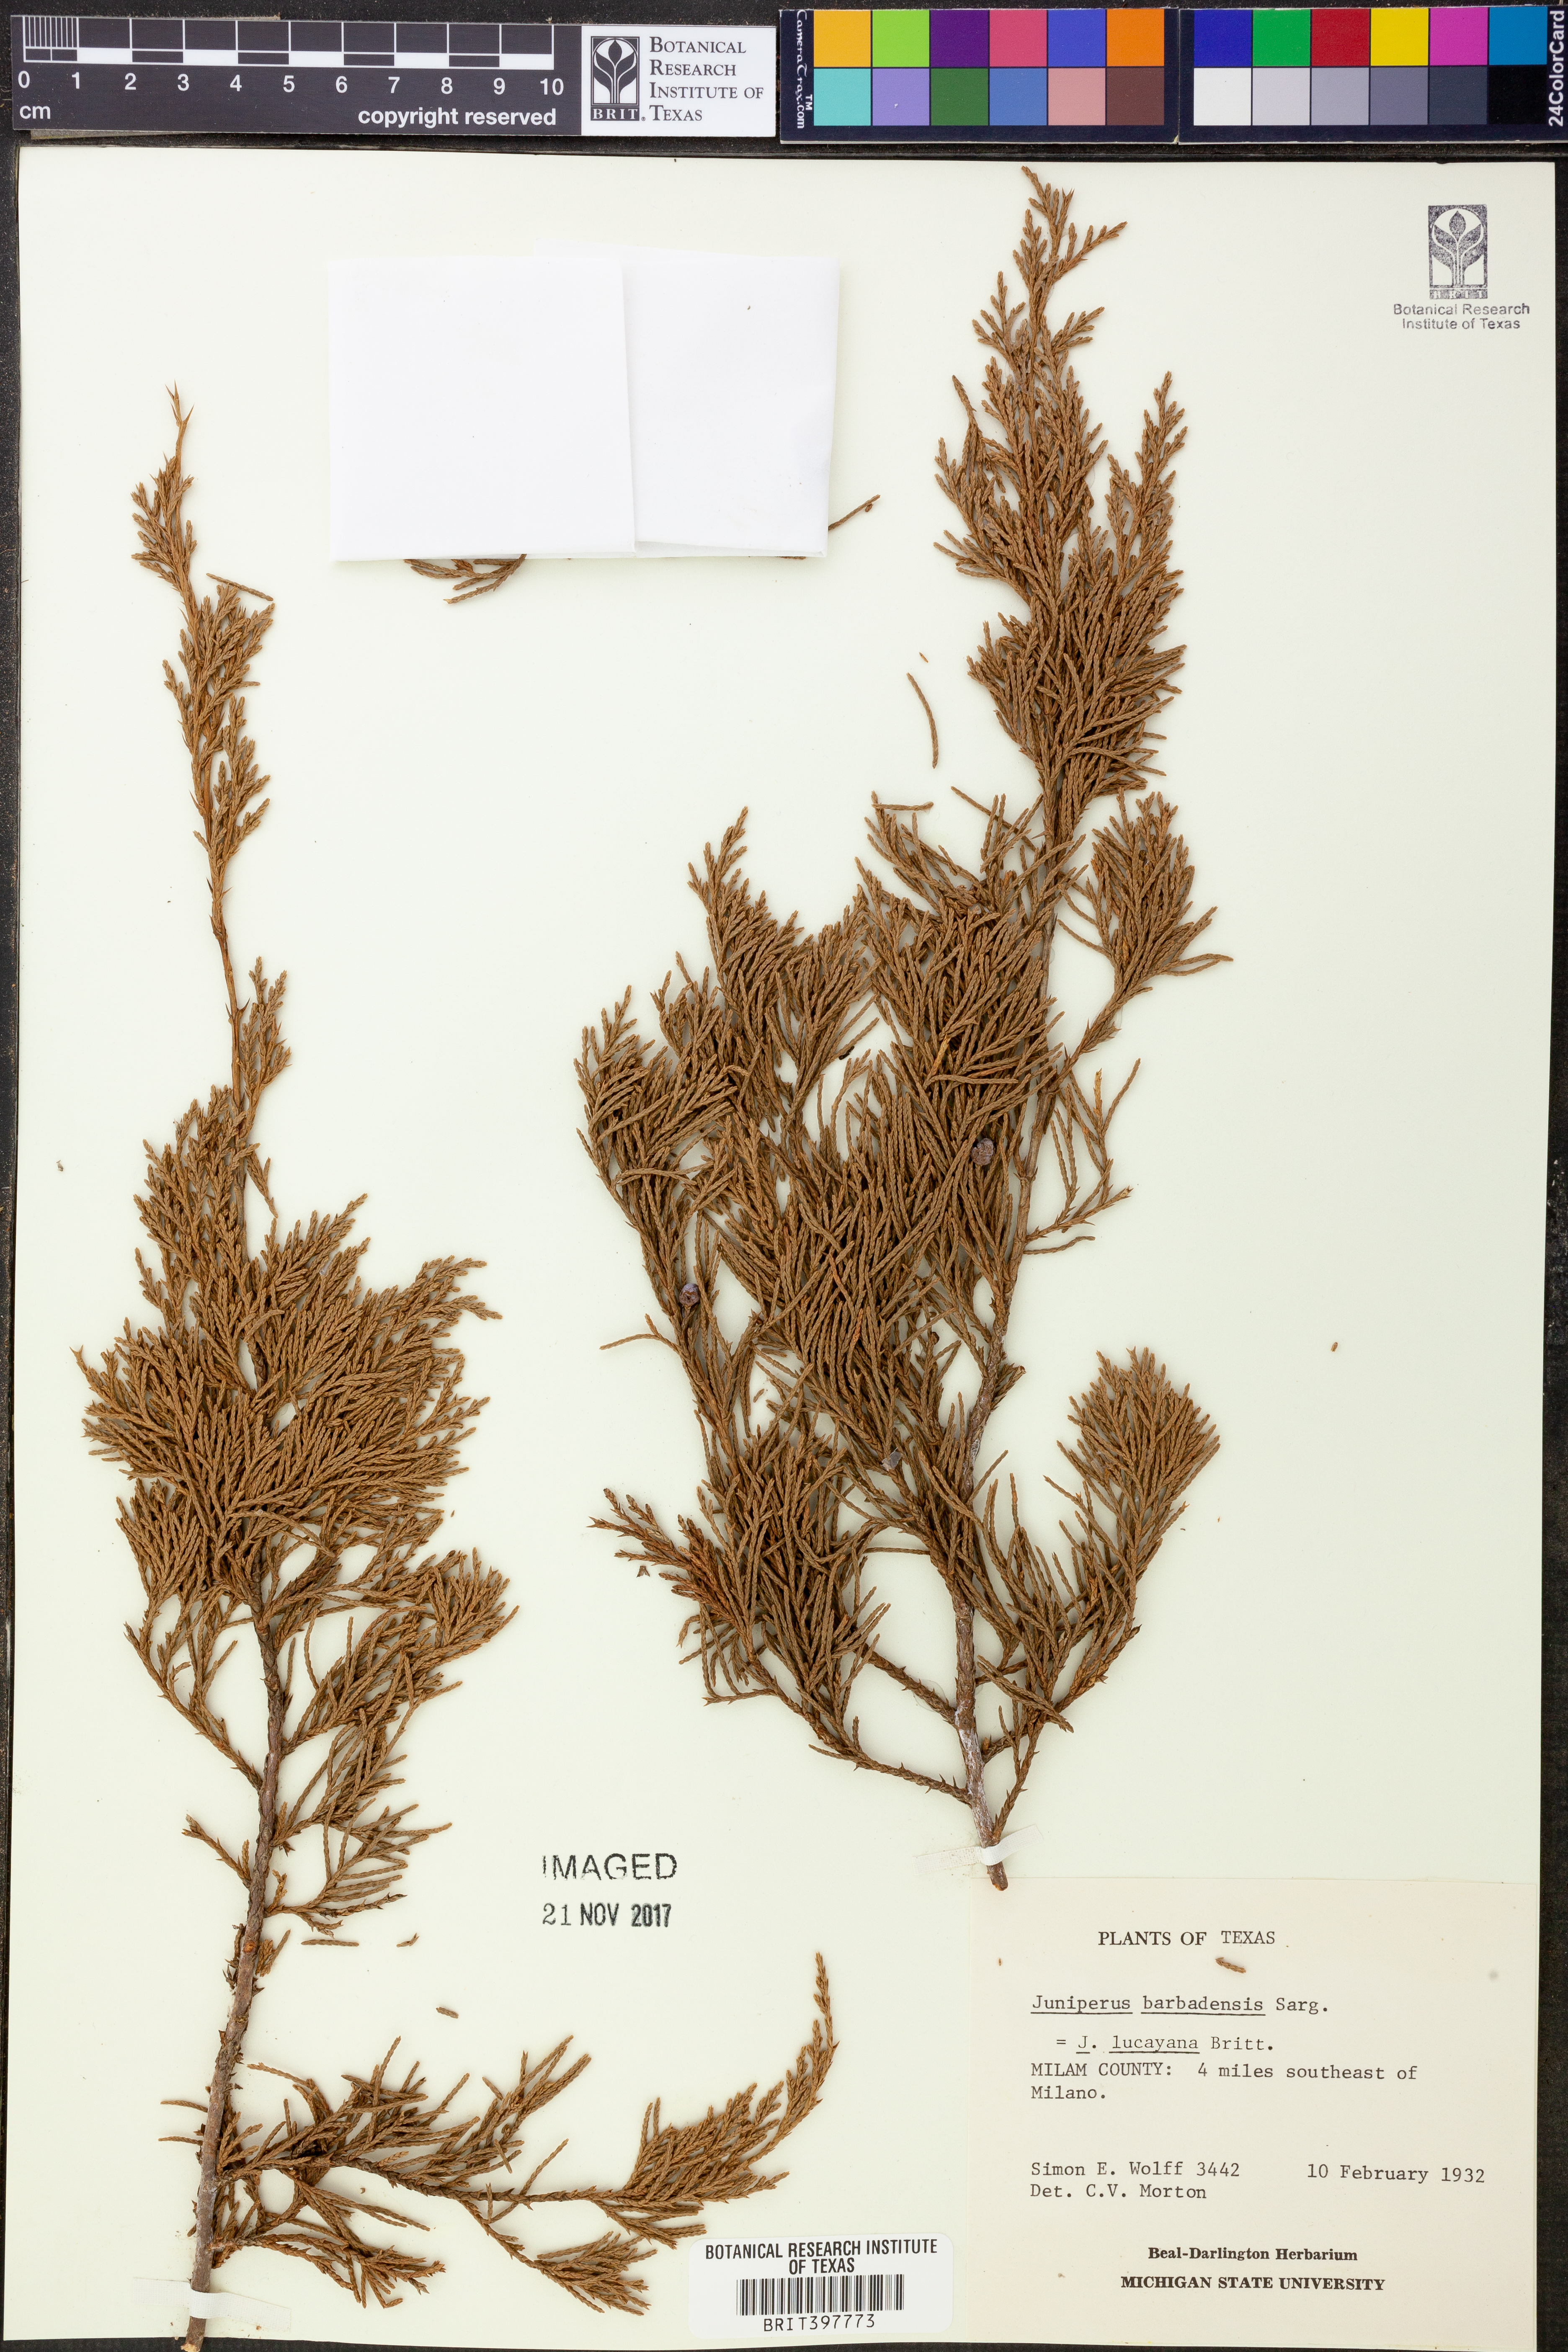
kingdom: Plantae
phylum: Tracheophyta
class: Pinopsida
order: Pinales
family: Cupressaceae
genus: Juniperus
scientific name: Juniperus barbadensis
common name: West indies juniper
